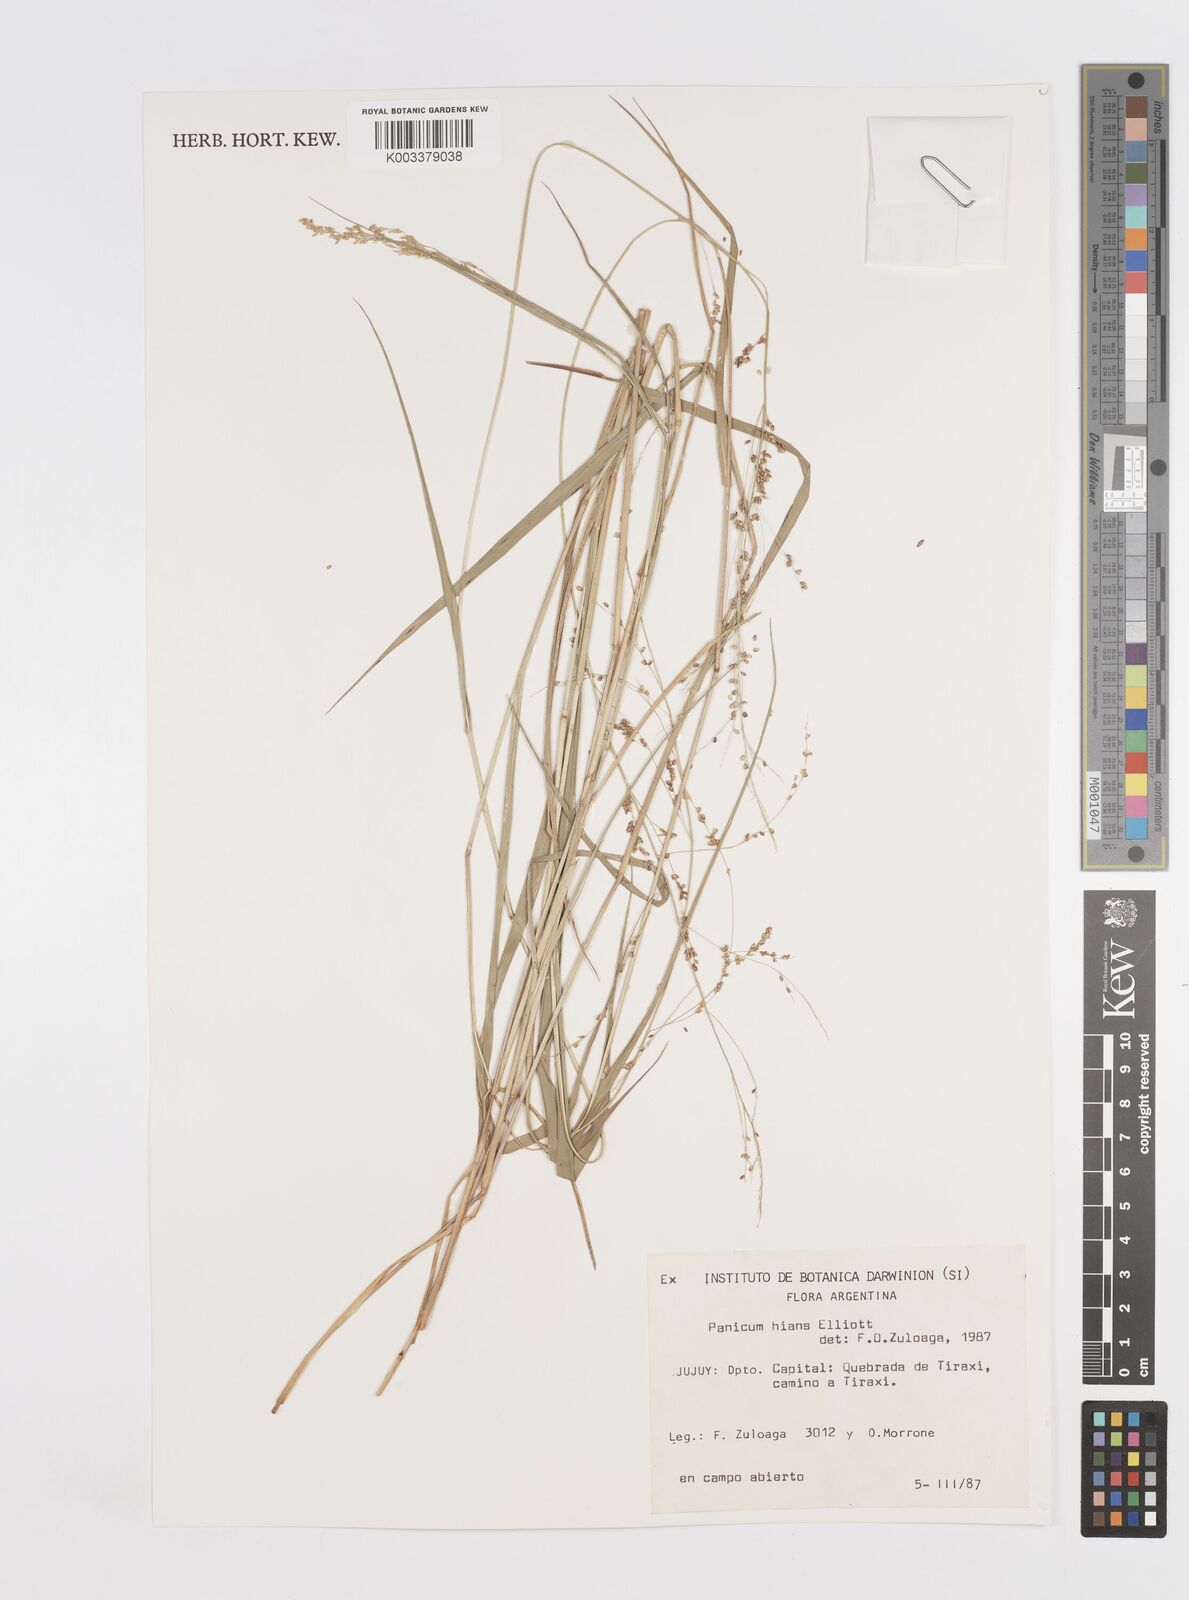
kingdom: Plantae
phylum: Tracheophyta
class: Liliopsida
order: Poales
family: Poaceae
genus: Steinchisma
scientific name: Steinchisma hians
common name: Gaping panic grass
